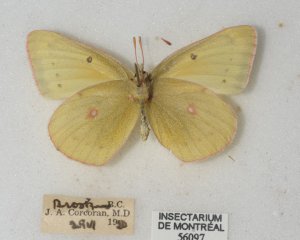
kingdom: Animalia
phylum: Arthropoda
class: Insecta
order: Lepidoptera
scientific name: Lepidoptera
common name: Butterflies
